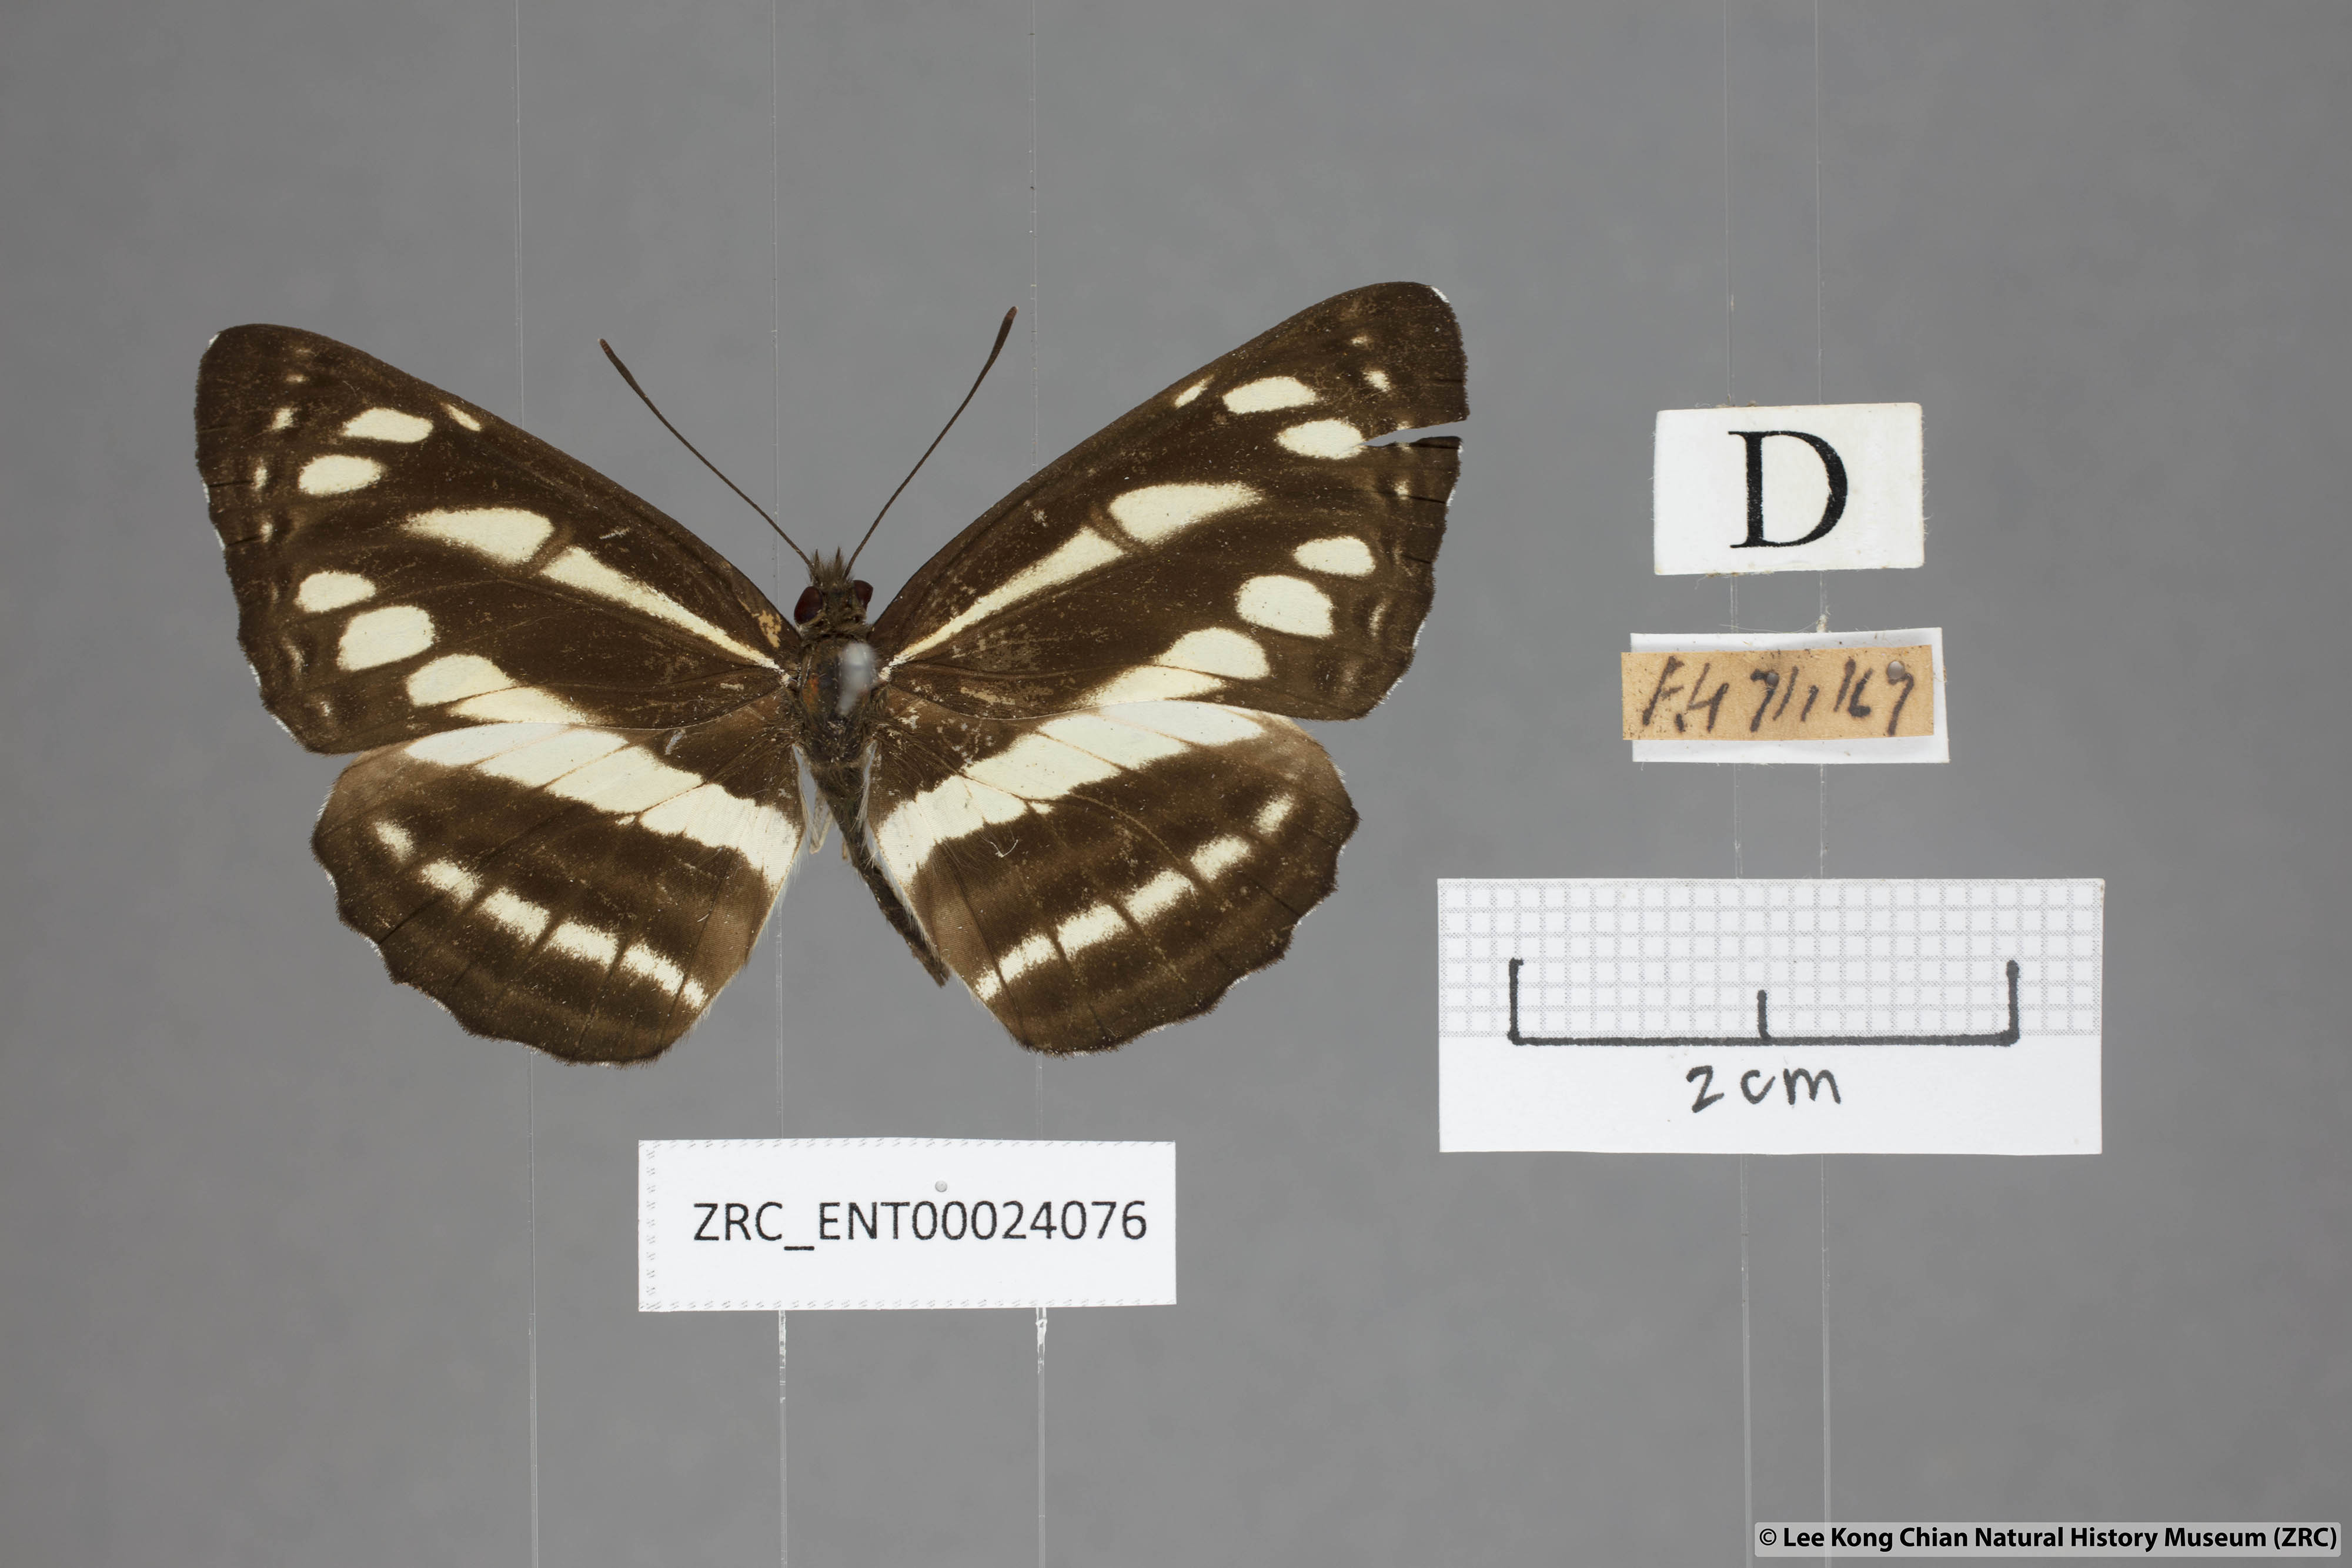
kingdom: Animalia
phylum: Arthropoda
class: Insecta
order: Lepidoptera
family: Nymphalidae
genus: Neptis
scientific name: Neptis soma
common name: Cream-spotted sailor
